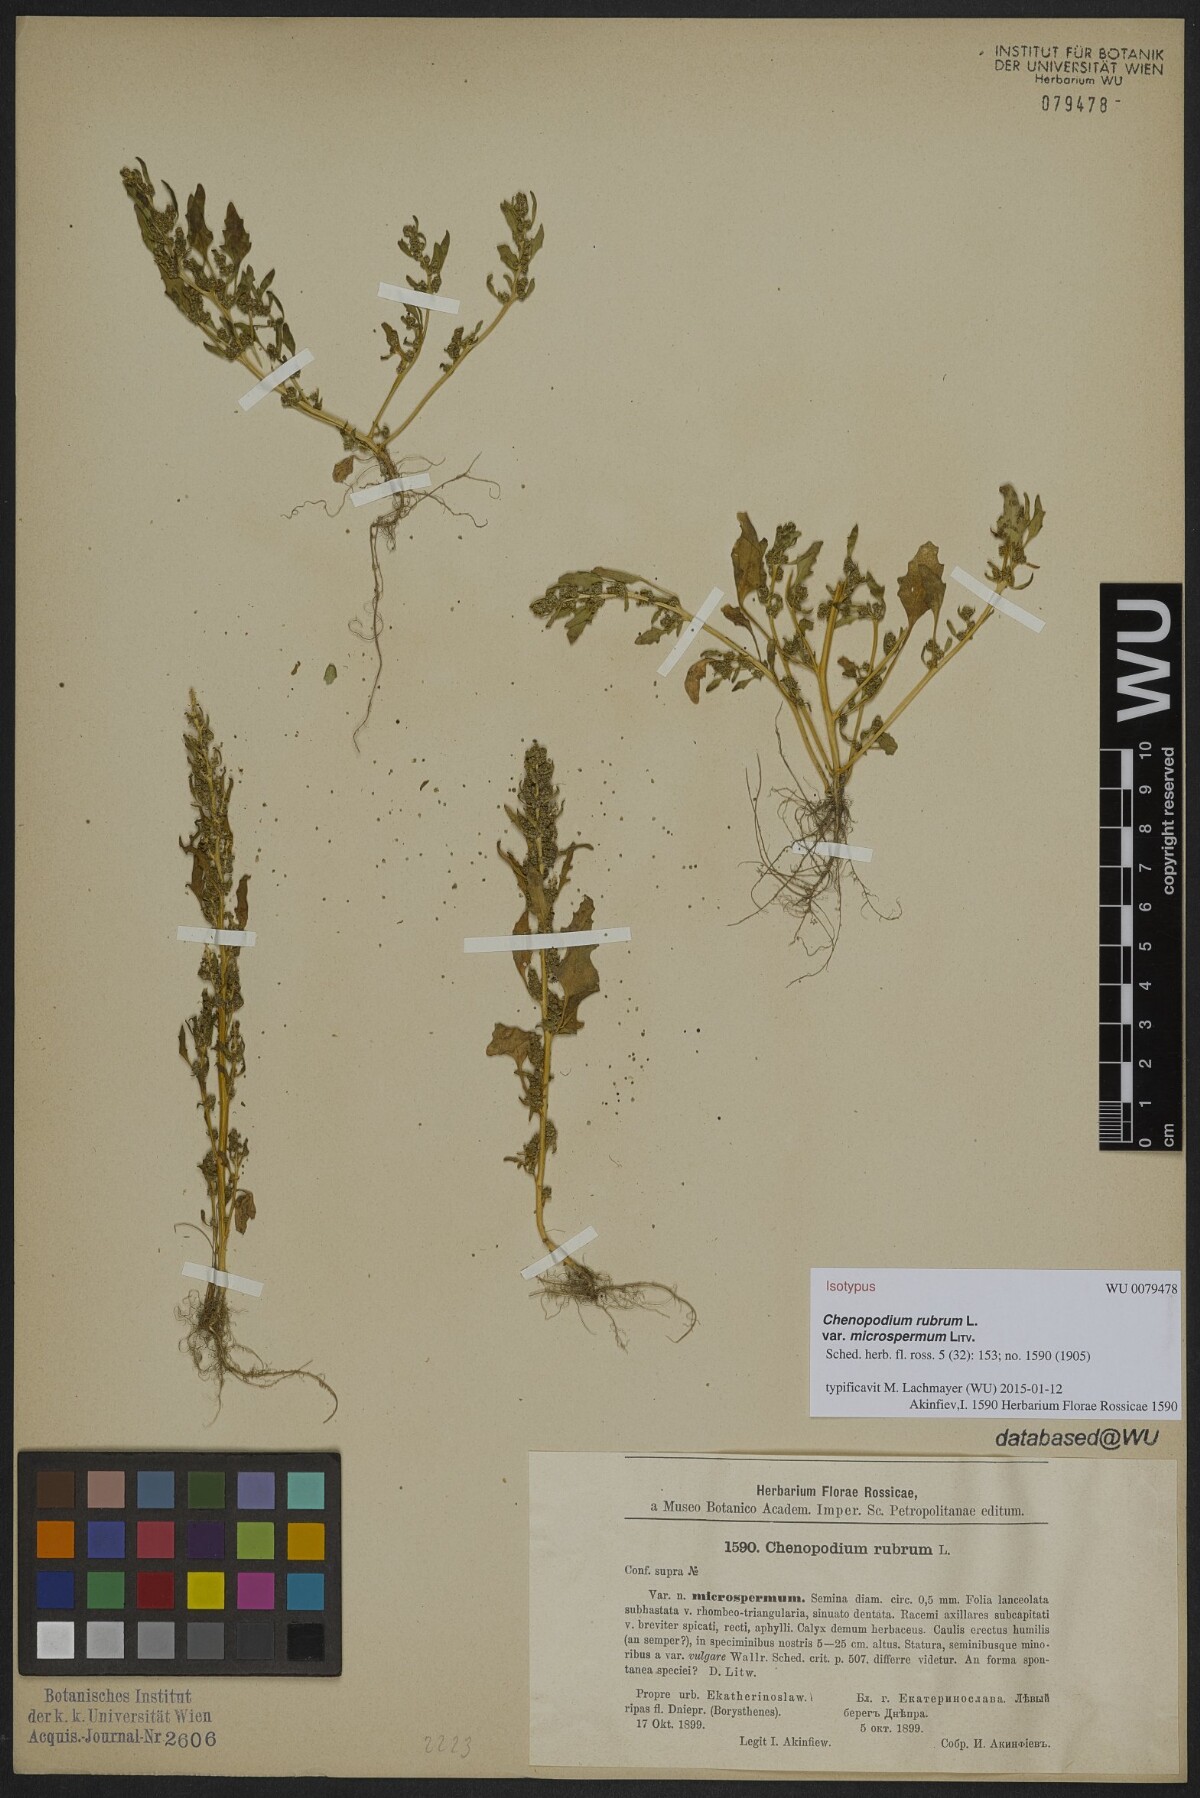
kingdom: Plantae
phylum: Tracheophyta
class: Magnoliopsida
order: Caryophyllales
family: Amaranthaceae
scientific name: Amaranthaceae
